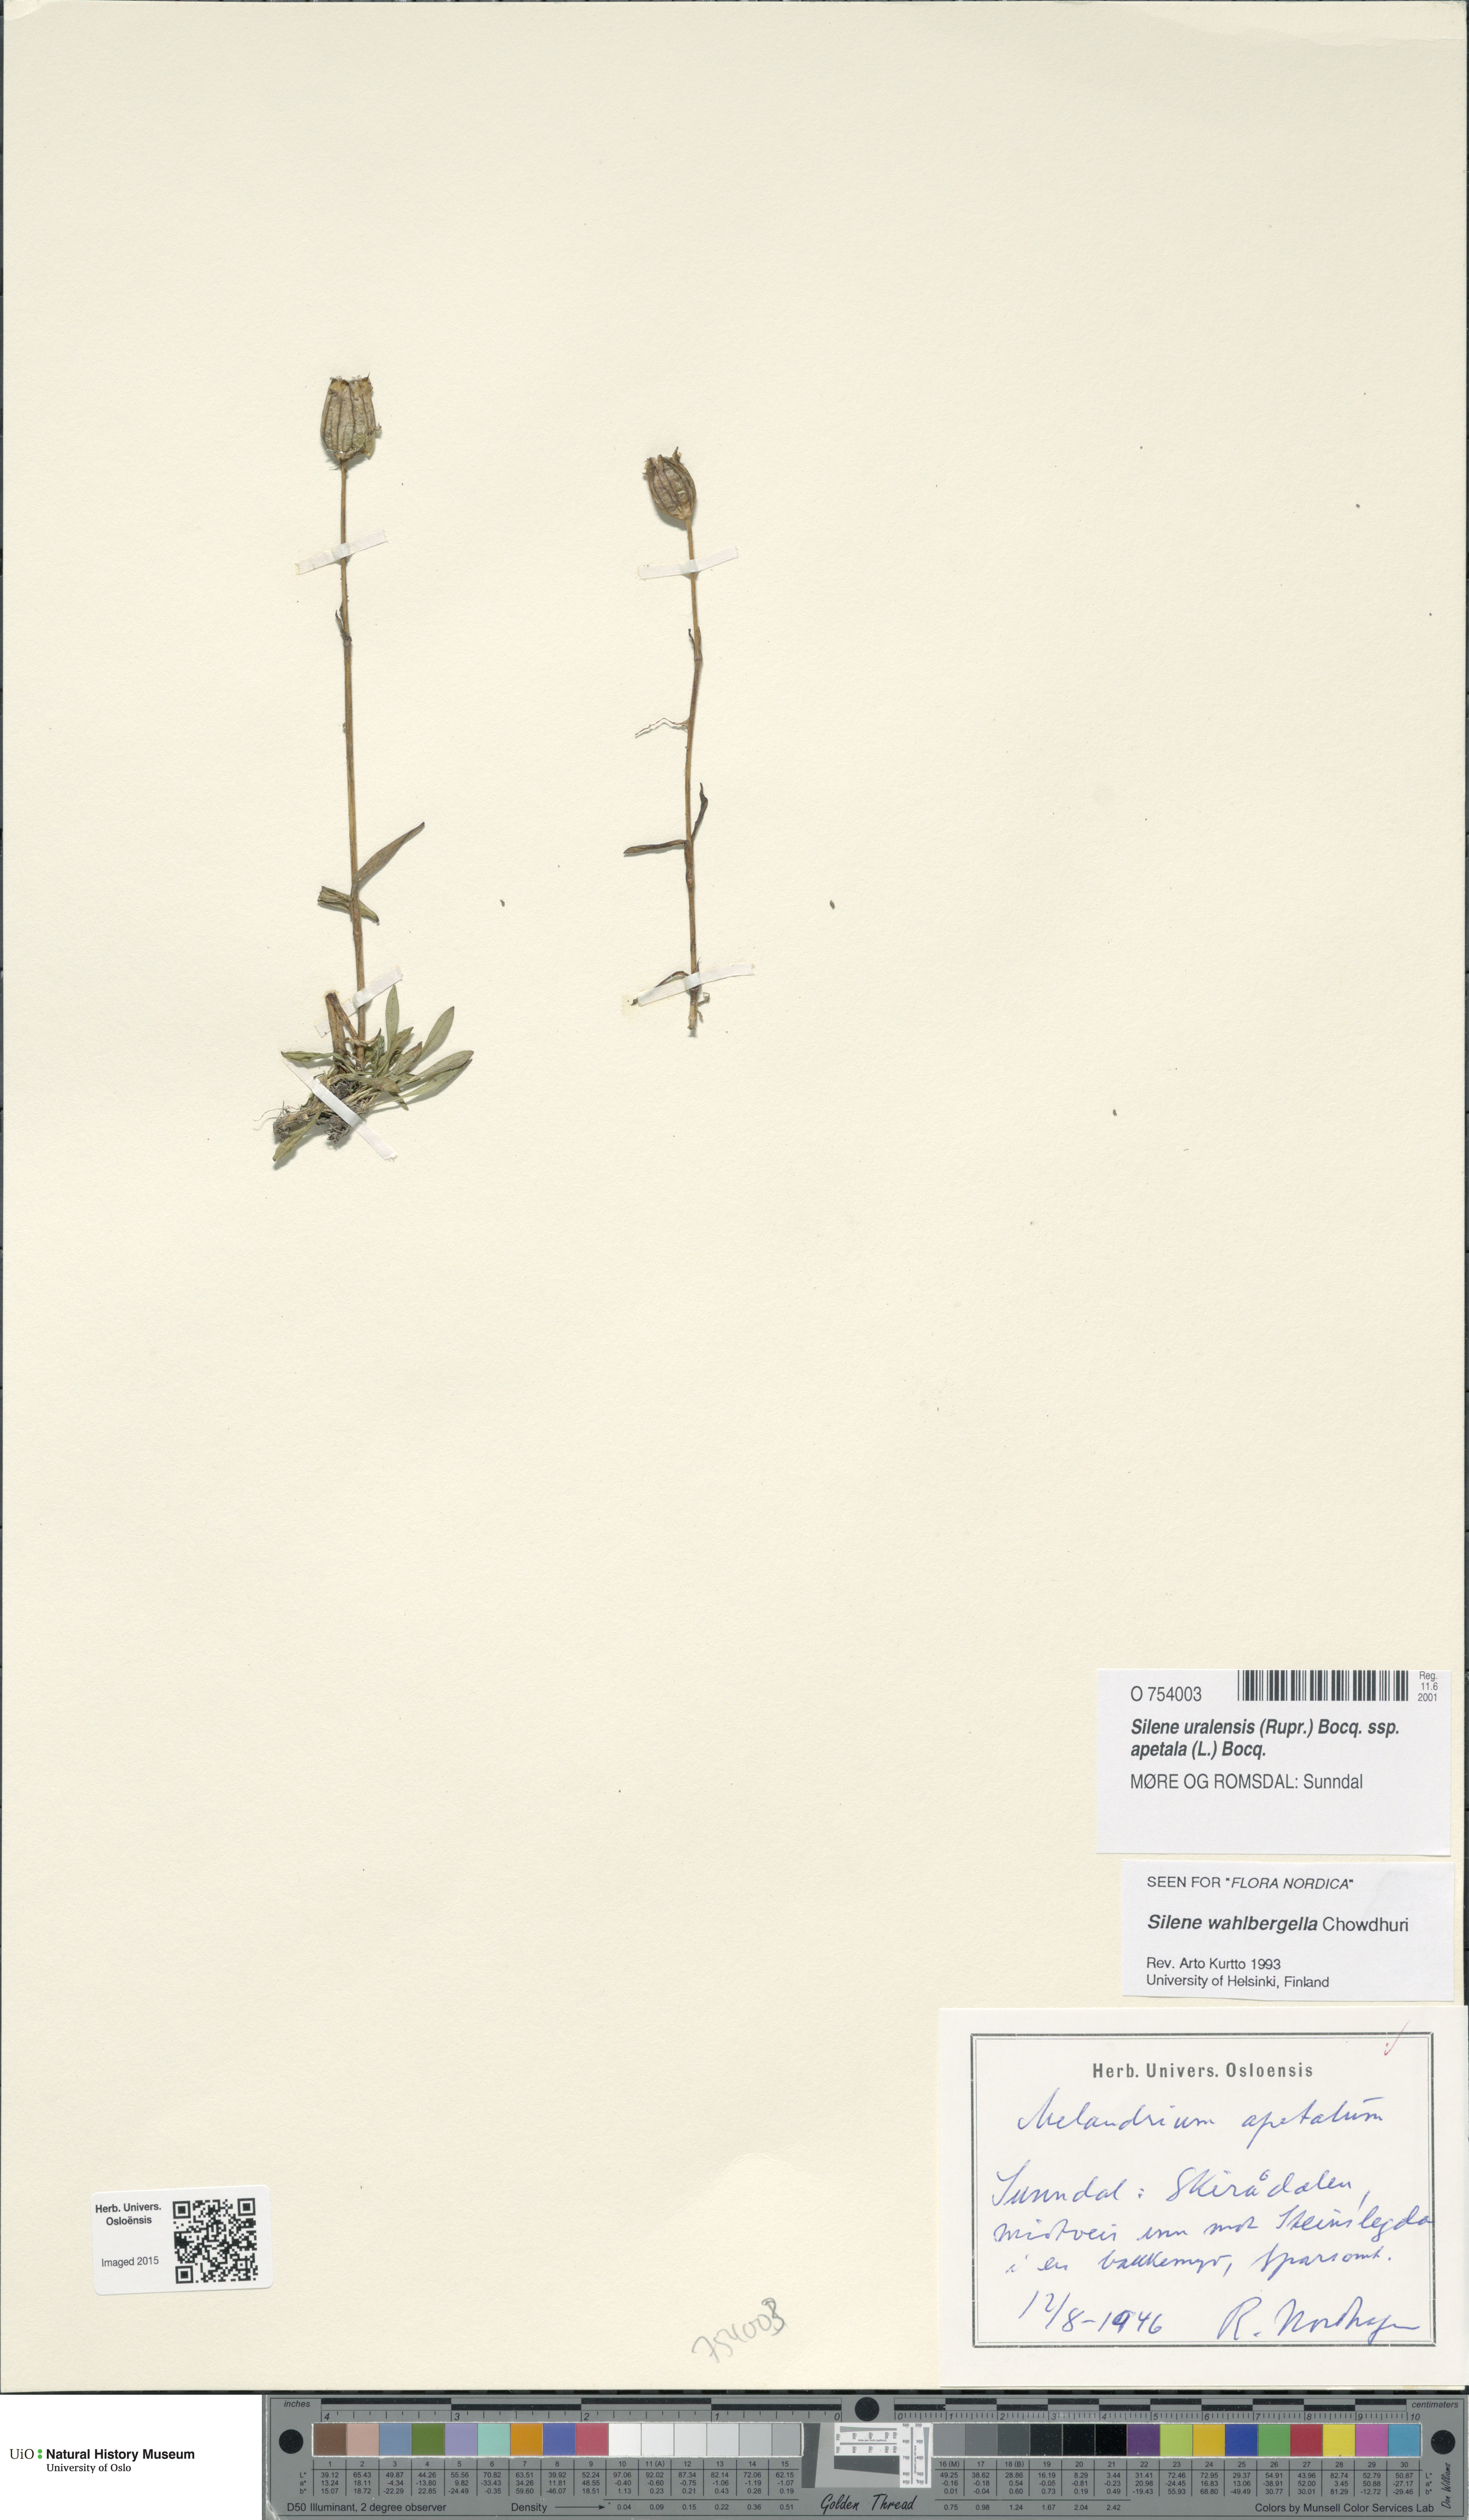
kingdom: Plantae
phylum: Tracheophyta
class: Magnoliopsida
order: Caryophyllales
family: Caryophyllaceae
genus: Silene
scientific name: Silene wahlbergella
